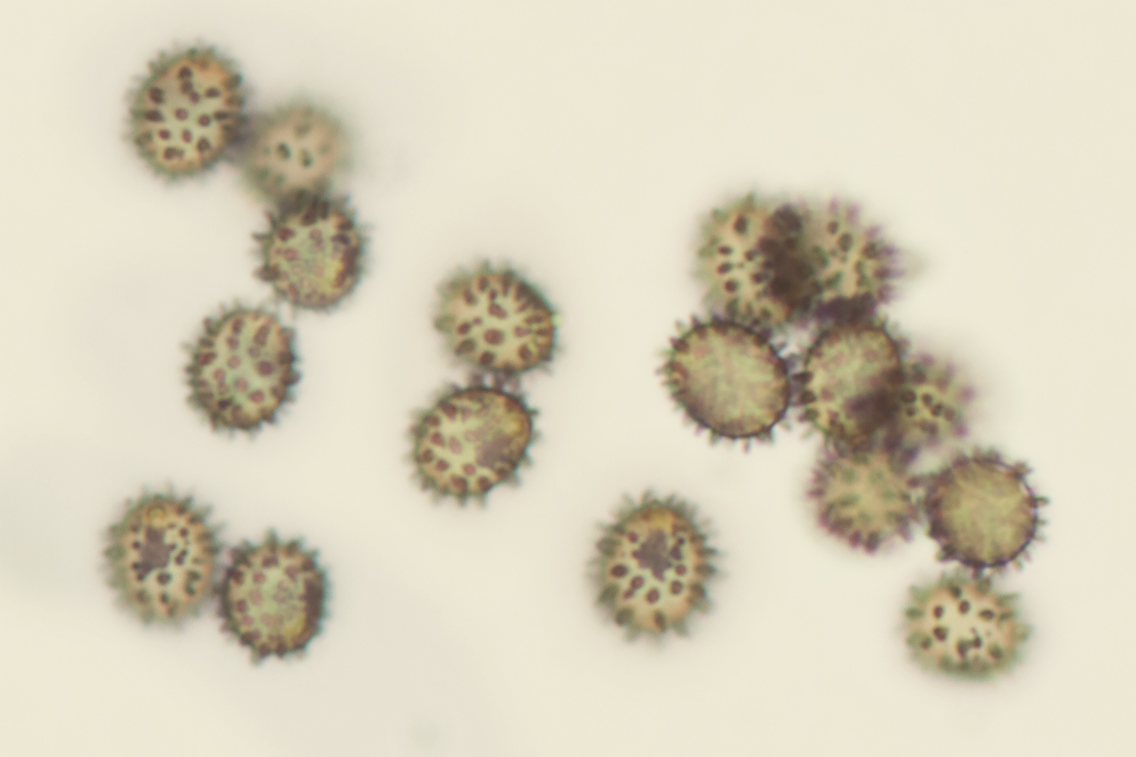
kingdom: Fungi
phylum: Basidiomycota
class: Agaricomycetes
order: Russulales
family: Russulaceae
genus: Russula
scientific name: Russula cuprea
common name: kanel-skørhat
